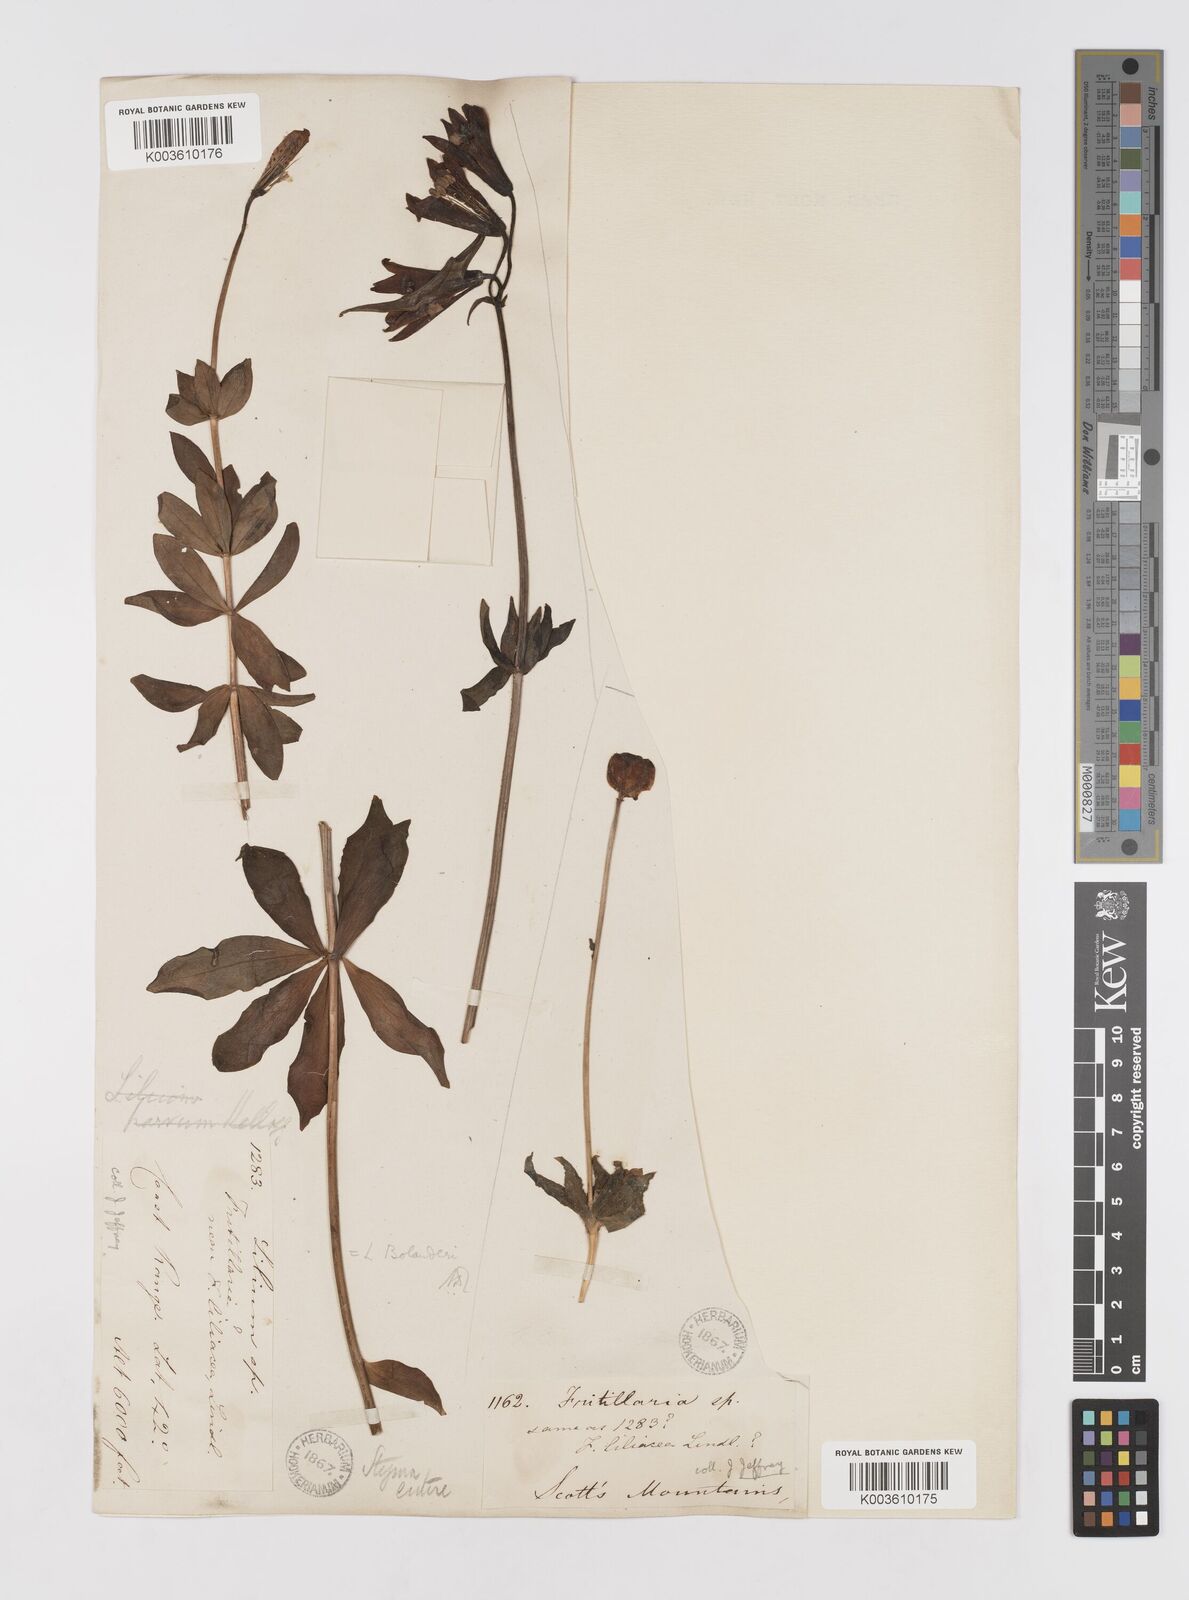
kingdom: Plantae
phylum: Tracheophyta
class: Liliopsida
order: Liliales
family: Liliaceae
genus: Lilium
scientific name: Lilium bolanderi
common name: Bolander's lily
